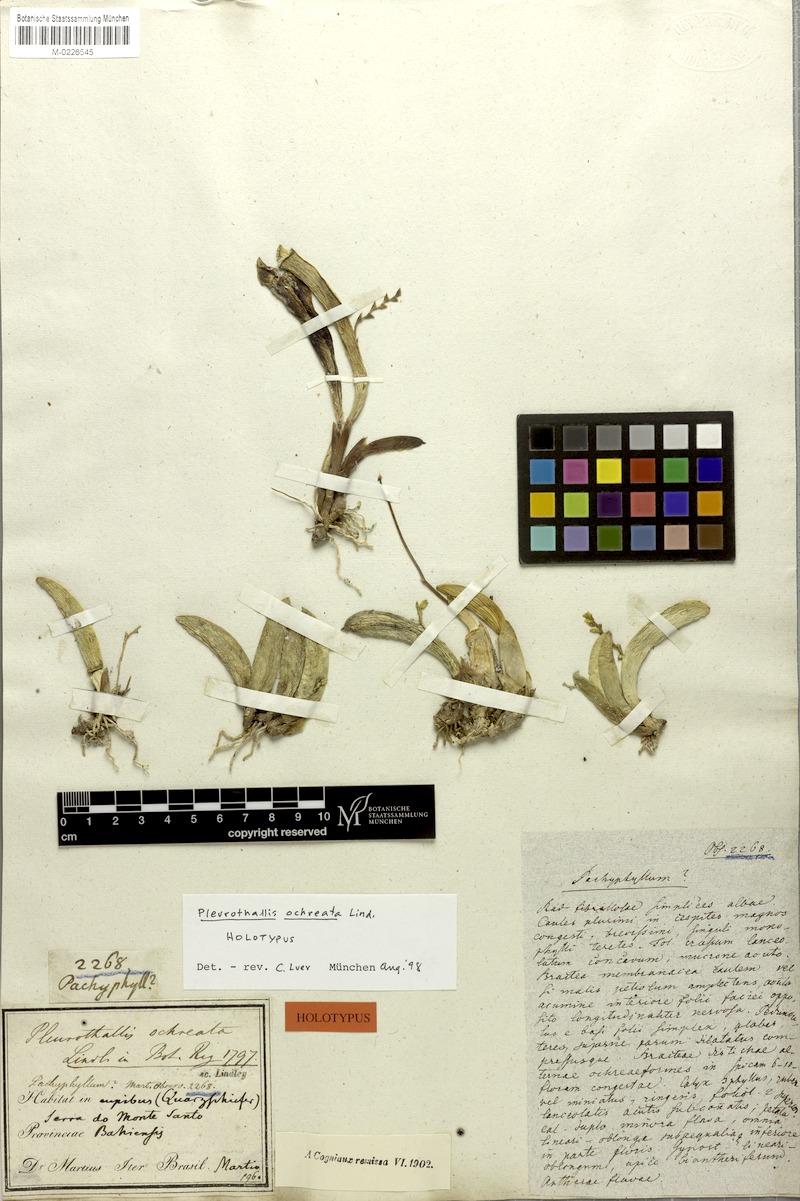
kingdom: Plantae
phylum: Tracheophyta
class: Liliopsida
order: Asparagales
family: Orchidaceae
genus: Acianthera
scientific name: Acianthera ochreata
